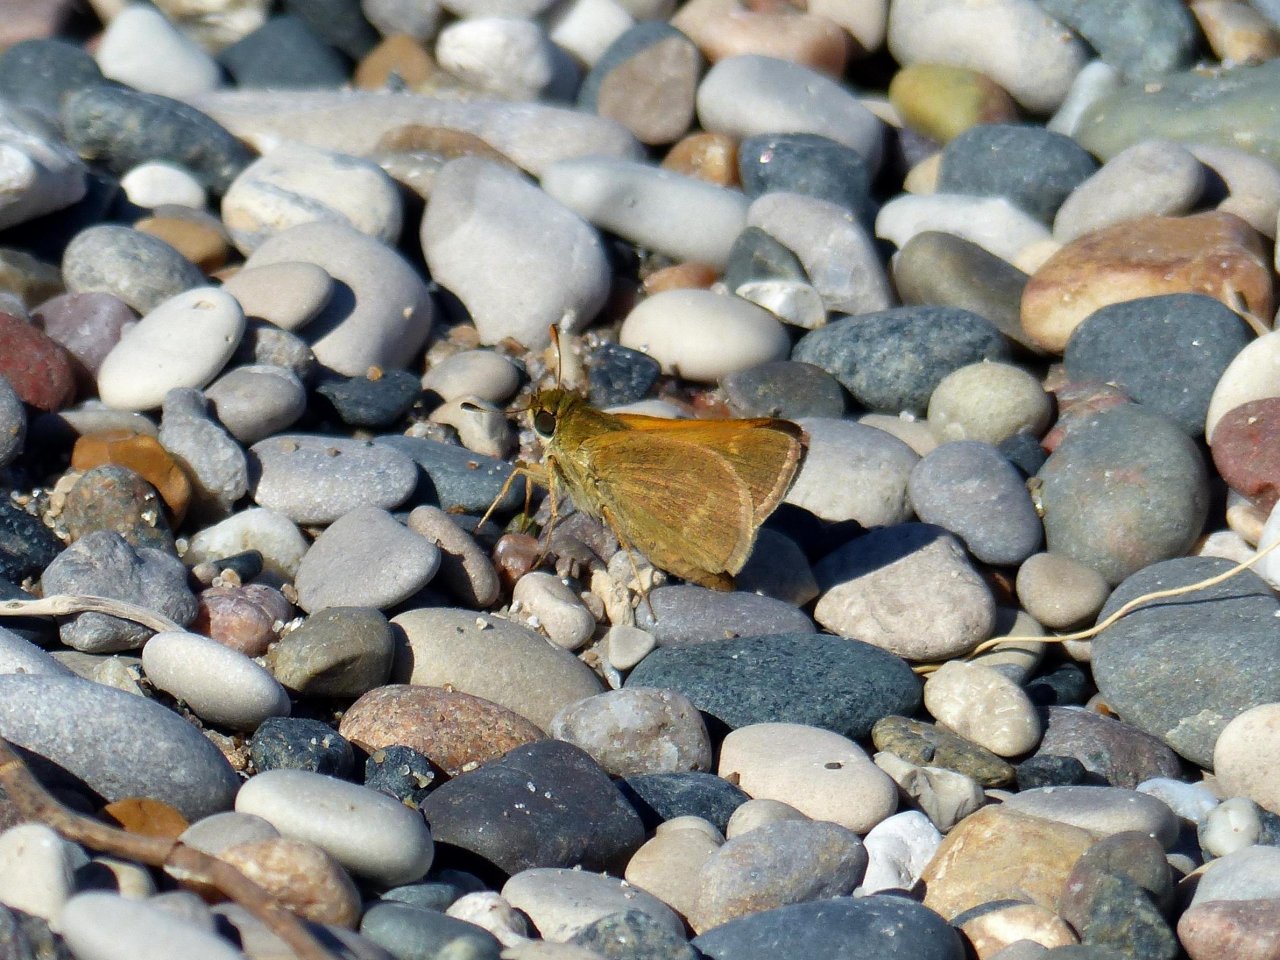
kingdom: Animalia
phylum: Arthropoda
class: Insecta
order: Lepidoptera
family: Hesperiidae
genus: Polites
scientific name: Polites
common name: Crossline Skipper
